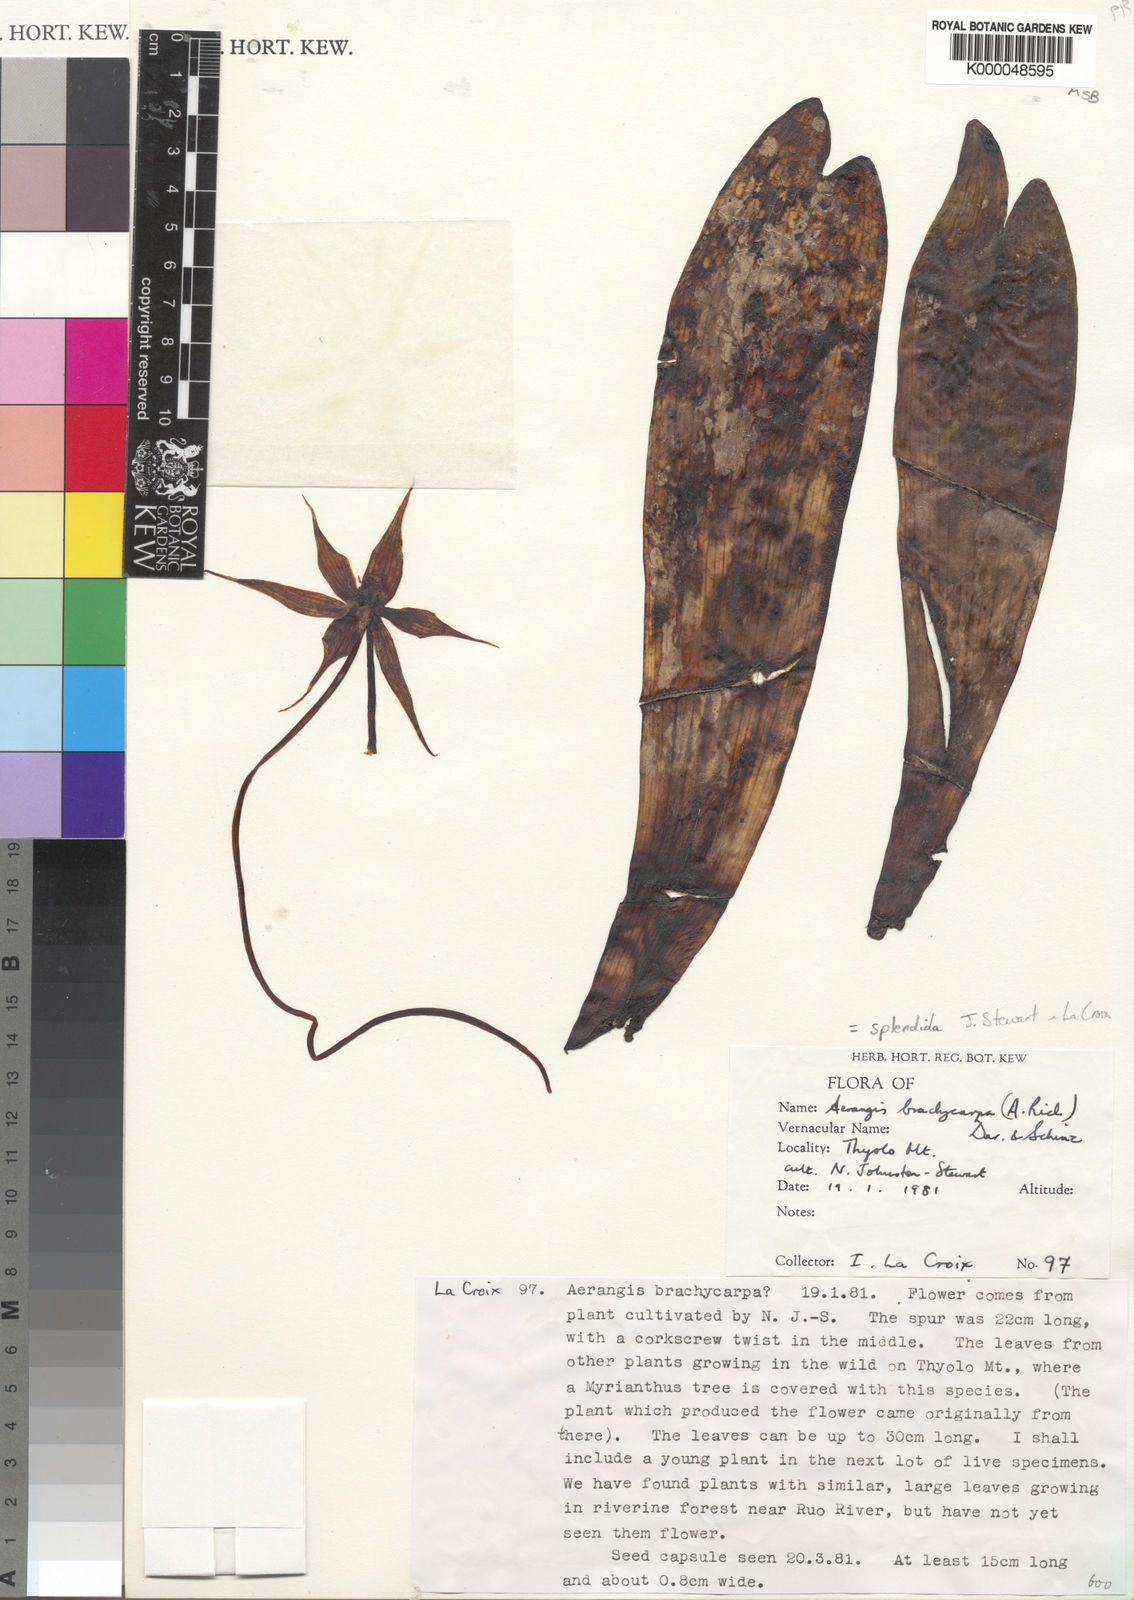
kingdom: Plantae
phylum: Tracheophyta
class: Liliopsida
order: Asparagales
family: Orchidaceae
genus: Aerangis
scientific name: Aerangis splendida
